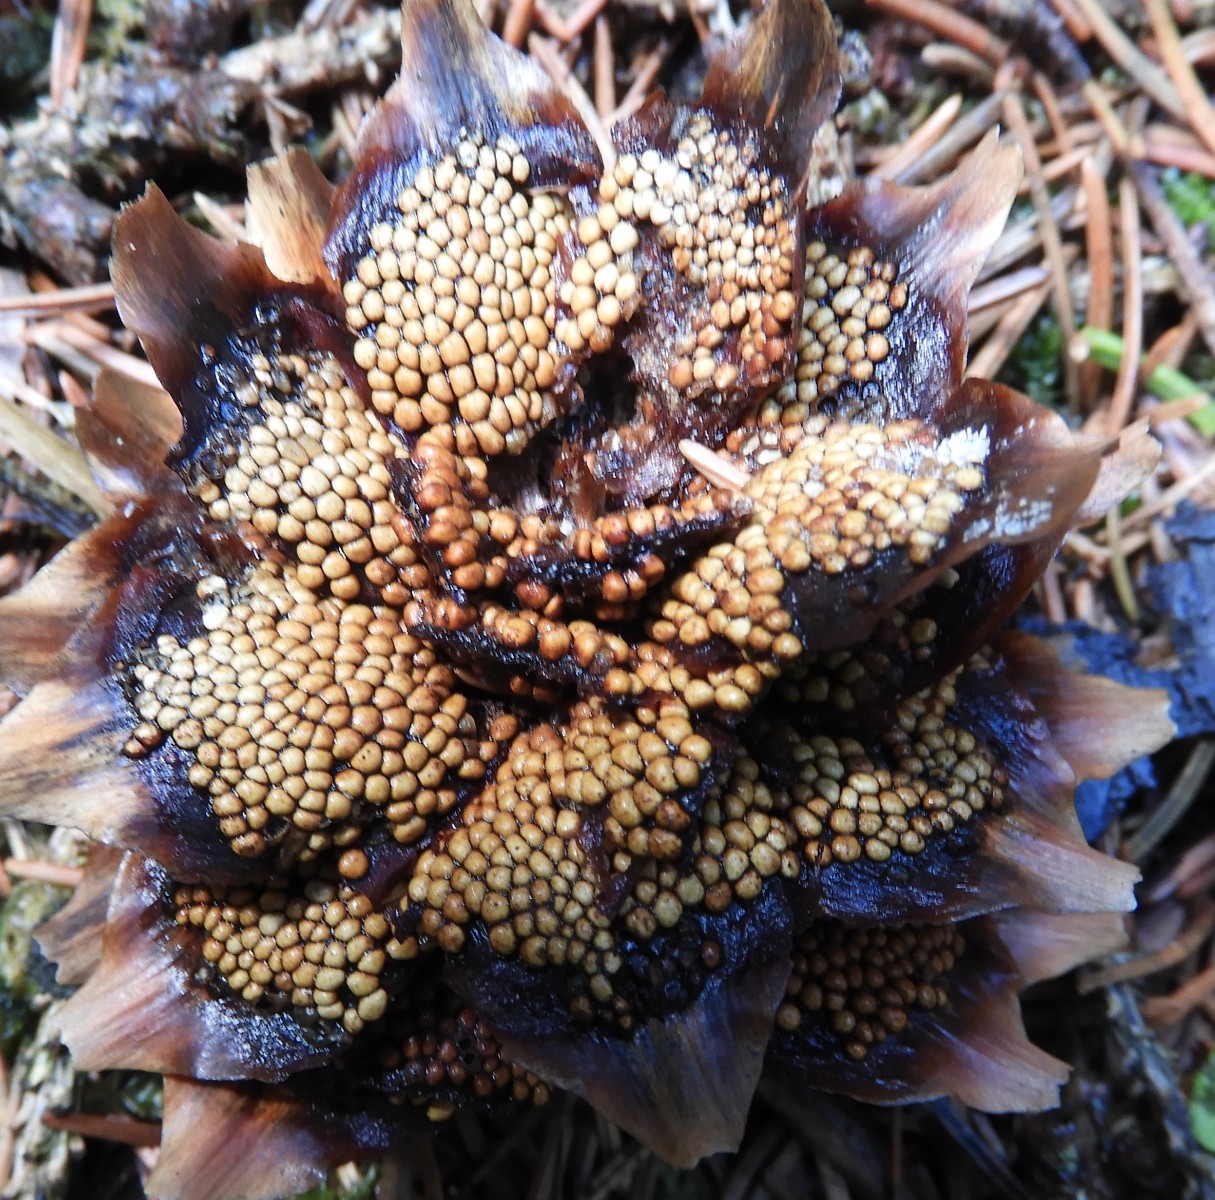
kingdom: Fungi
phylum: Basidiomycota
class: Pucciniomycetes
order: Pucciniales
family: Pucciniastraceae
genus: Thekopsora
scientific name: Thekopsora areolata
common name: grankogle-nålerust
